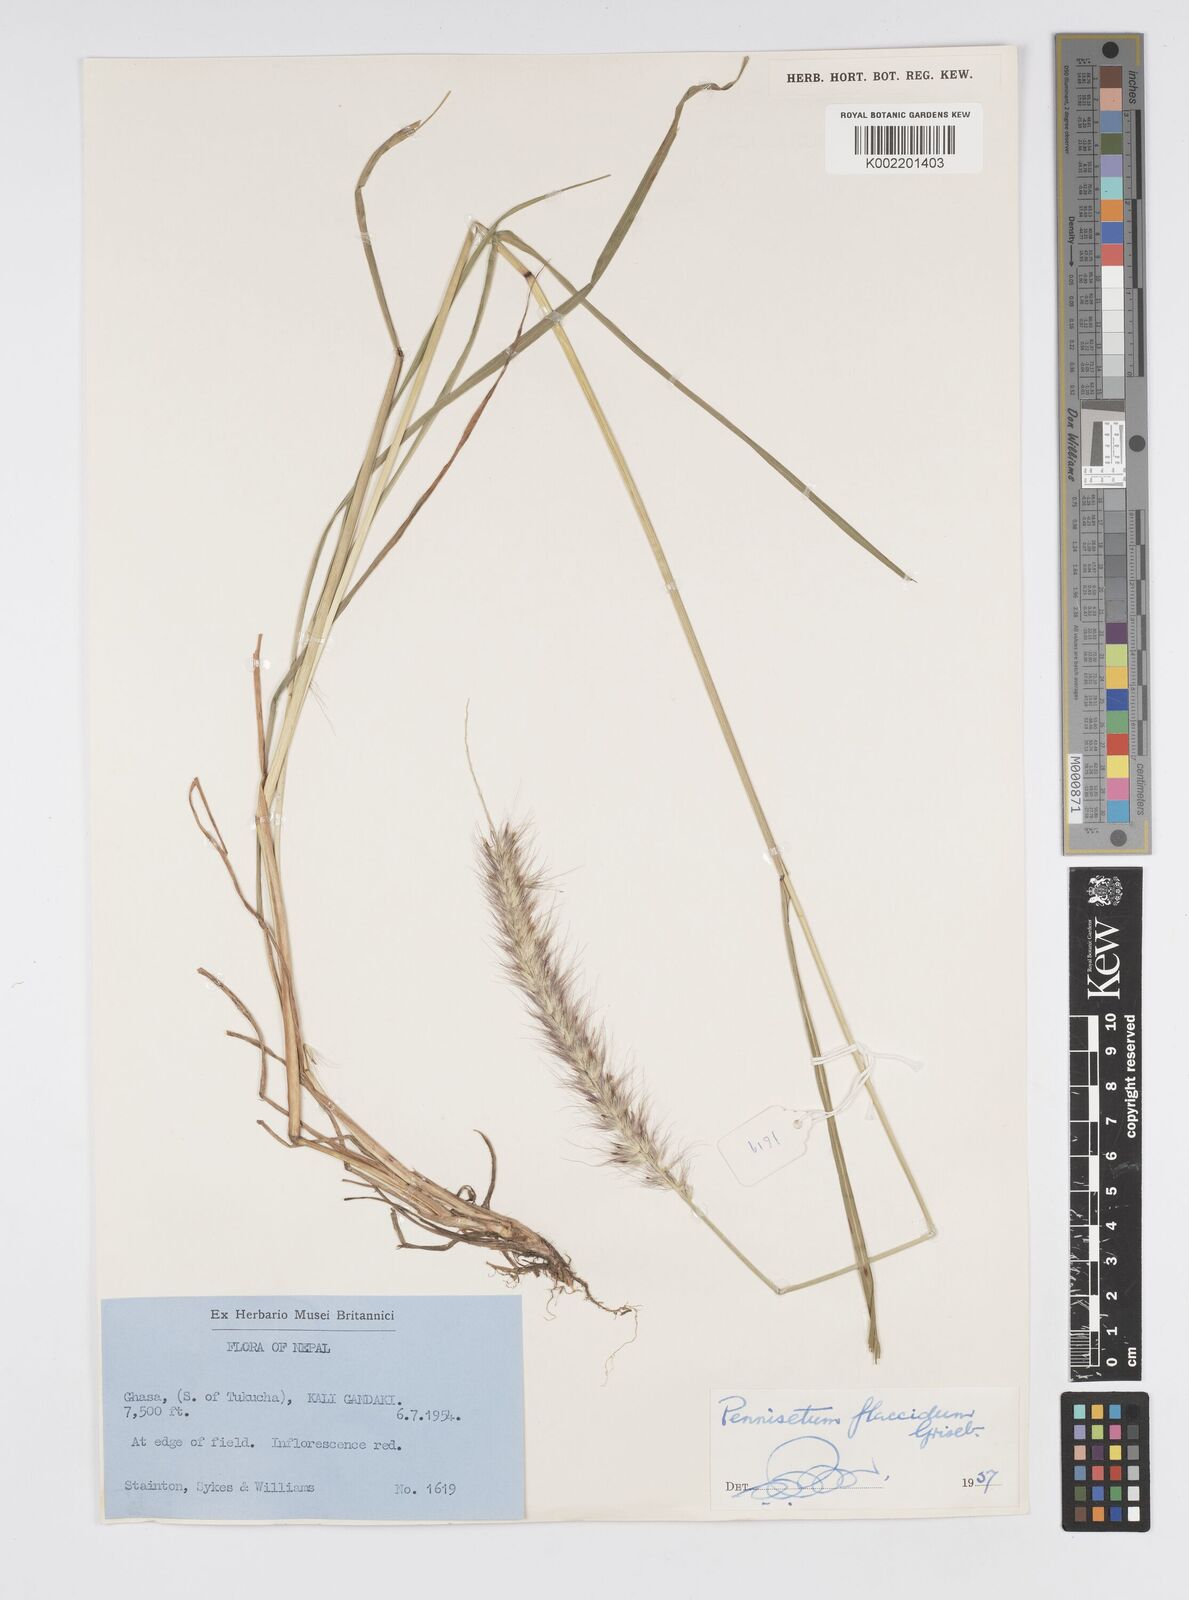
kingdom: Plantae
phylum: Tracheophyta
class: Liliopsida
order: Poales
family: Poaceae
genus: Cenchrus
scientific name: Cenchrus flaccidus
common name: Flaccid grass
